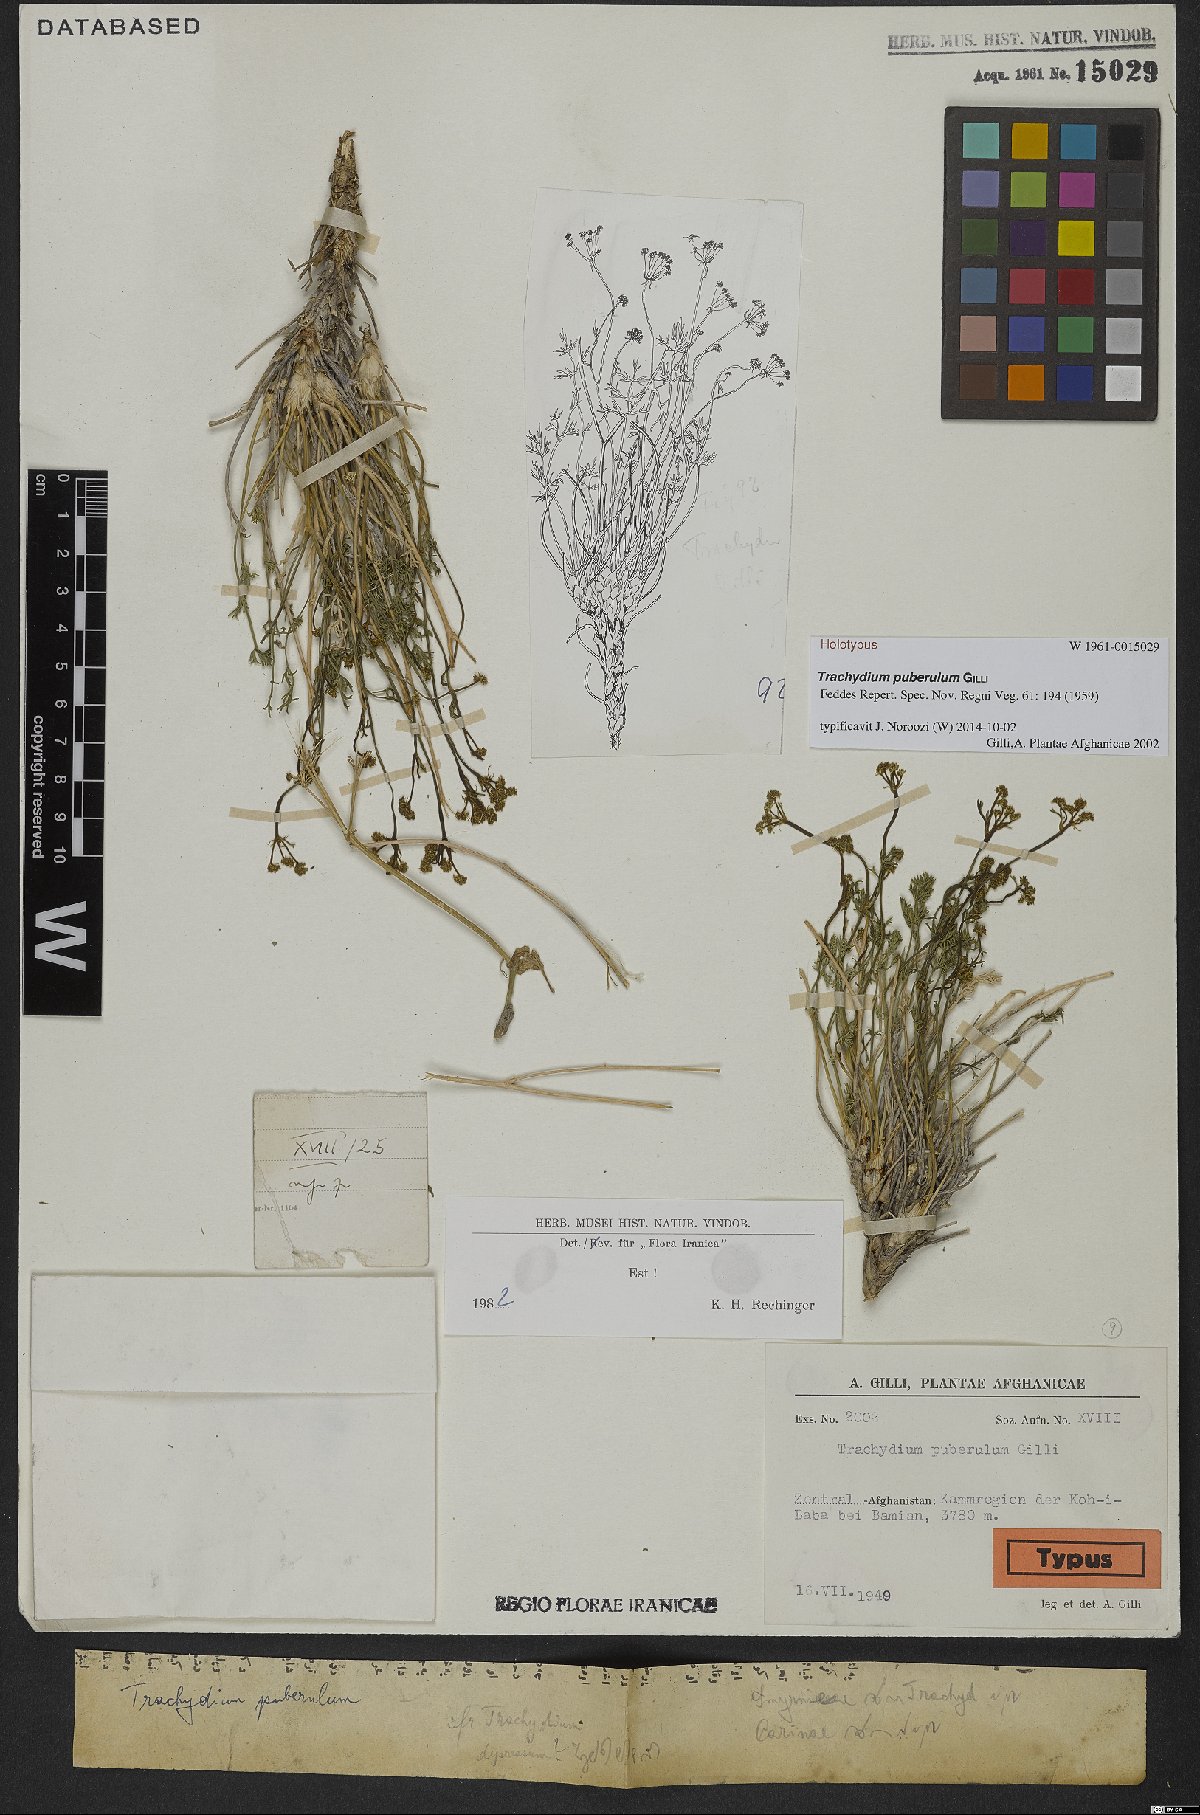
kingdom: Plantae
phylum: Tracheophyta
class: Magnoliopsida
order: Apiales
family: Apiaceae
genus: Trachydium
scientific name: Trachydium puberulum
